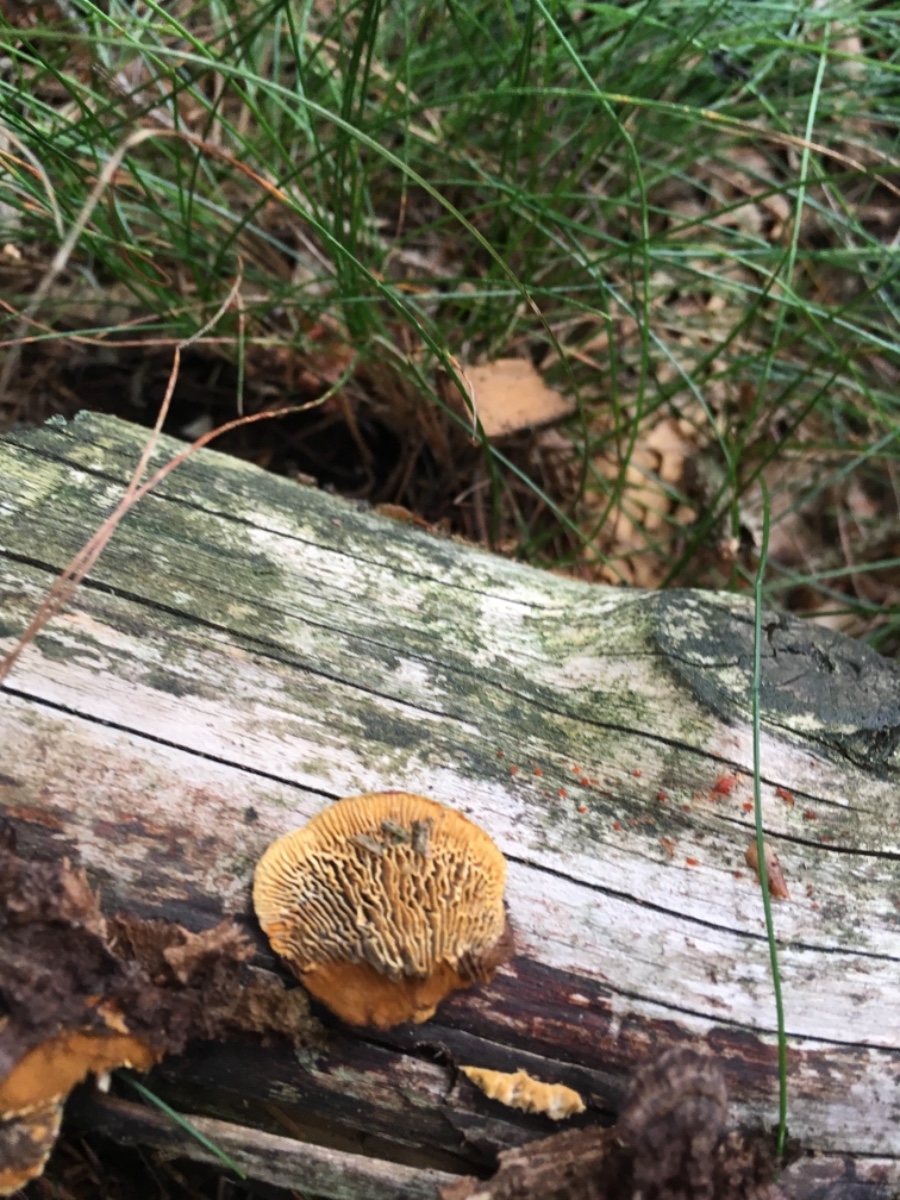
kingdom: Fungi
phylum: Basidiomycota
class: Agaricomycetes
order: Gloeophyllales
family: Gloeophyllaceae
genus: Gloeophyllum
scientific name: Gloeophyllum sepiarium
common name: fyrre-korkhat
